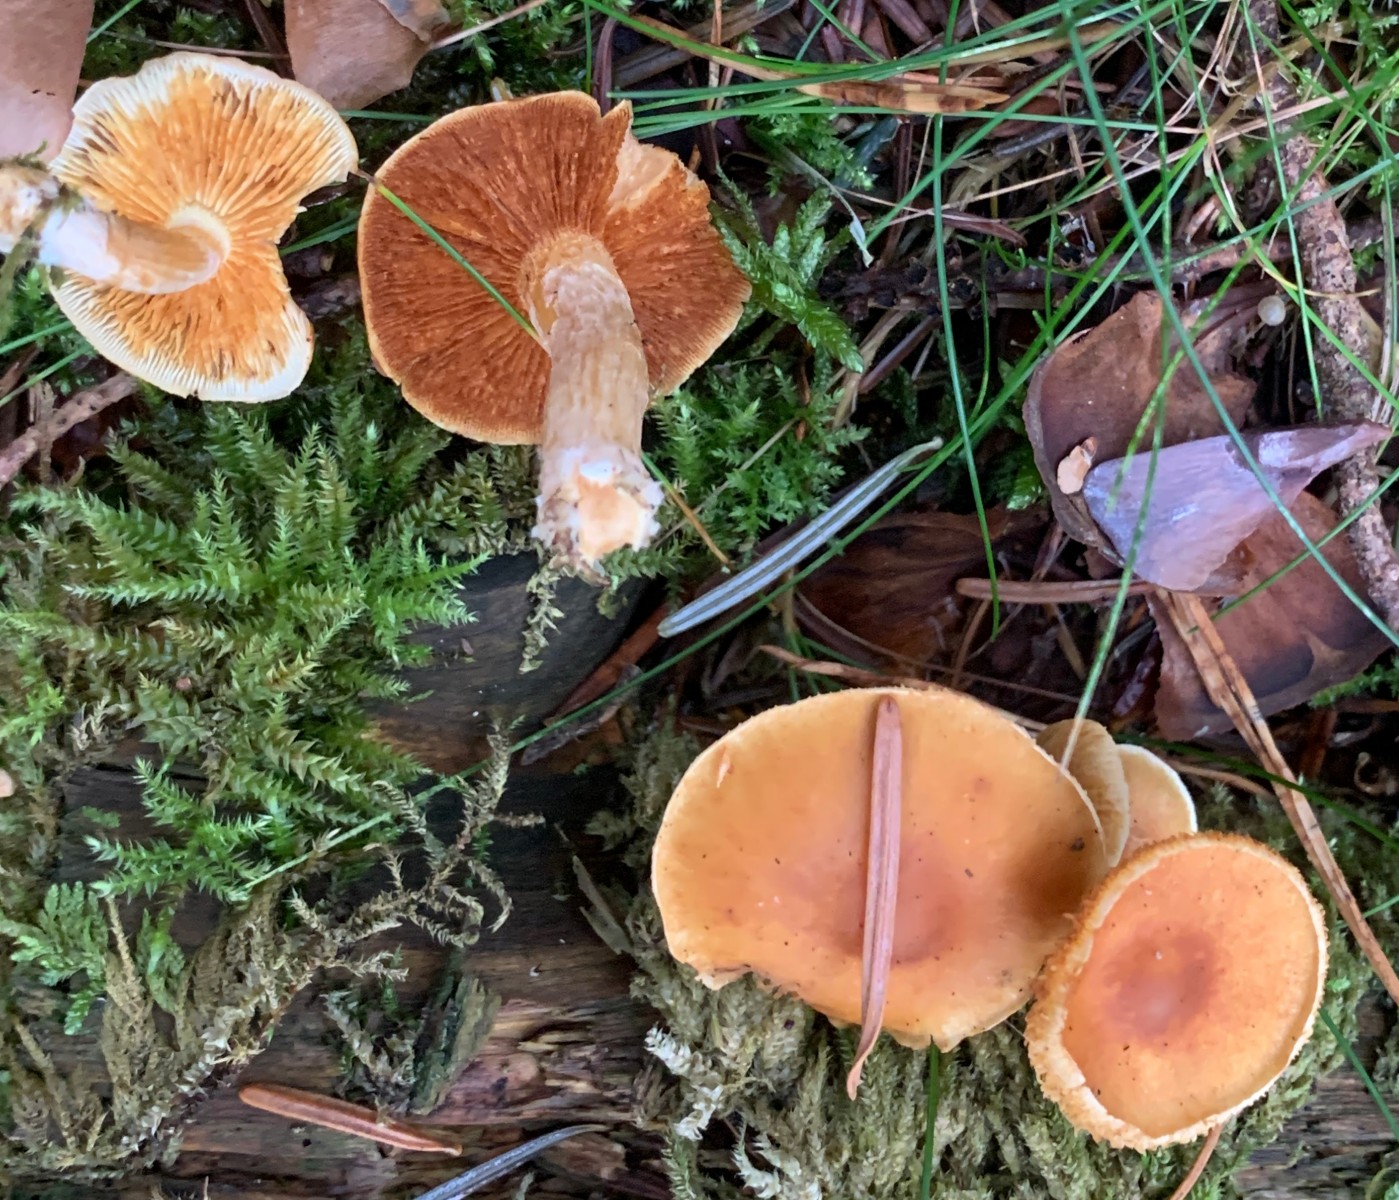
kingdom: Fungi
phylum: Basidiomycota
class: Agaricomycetes
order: Agaricales
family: Hymenogastraceae
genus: Gymnopilus
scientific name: Gymnopilus penetrans
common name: plettet flammehat
